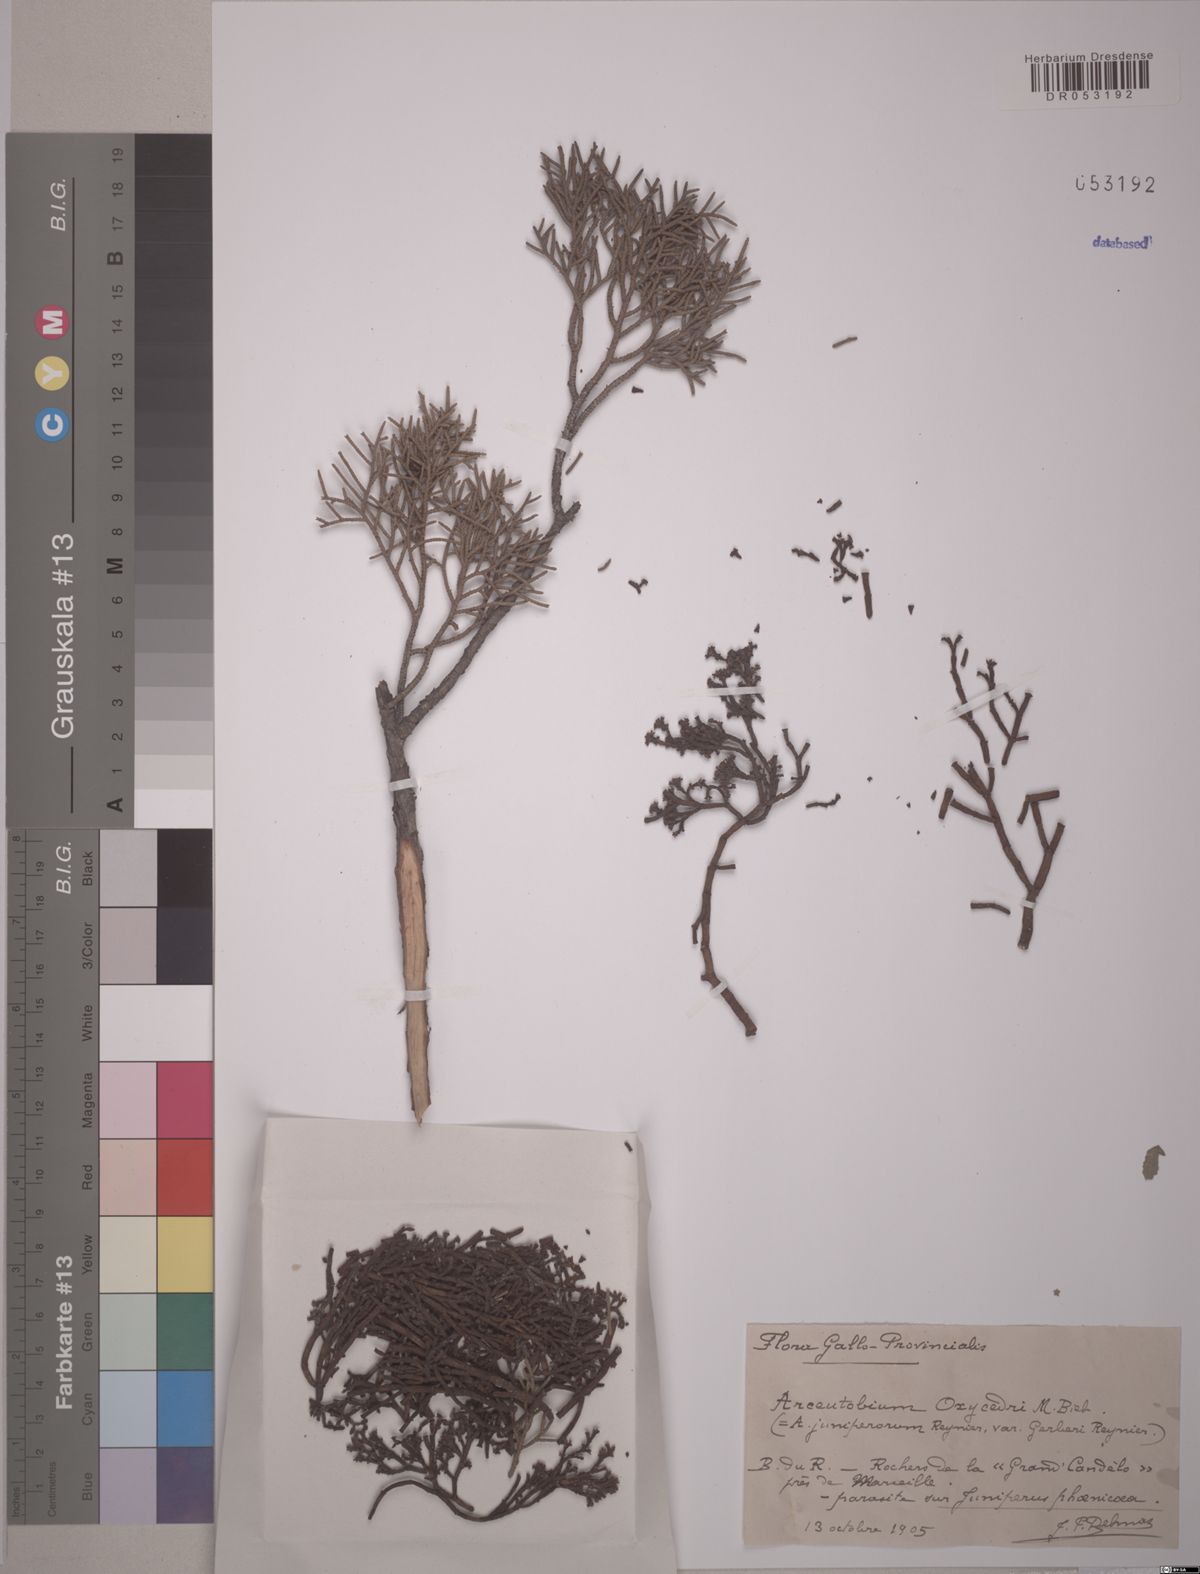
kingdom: Plantae
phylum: Tracheophyta
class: Magnoliopsida
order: Santalales
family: Viscaceae
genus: Arceuthobium
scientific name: Arceuthobium oxycedri
